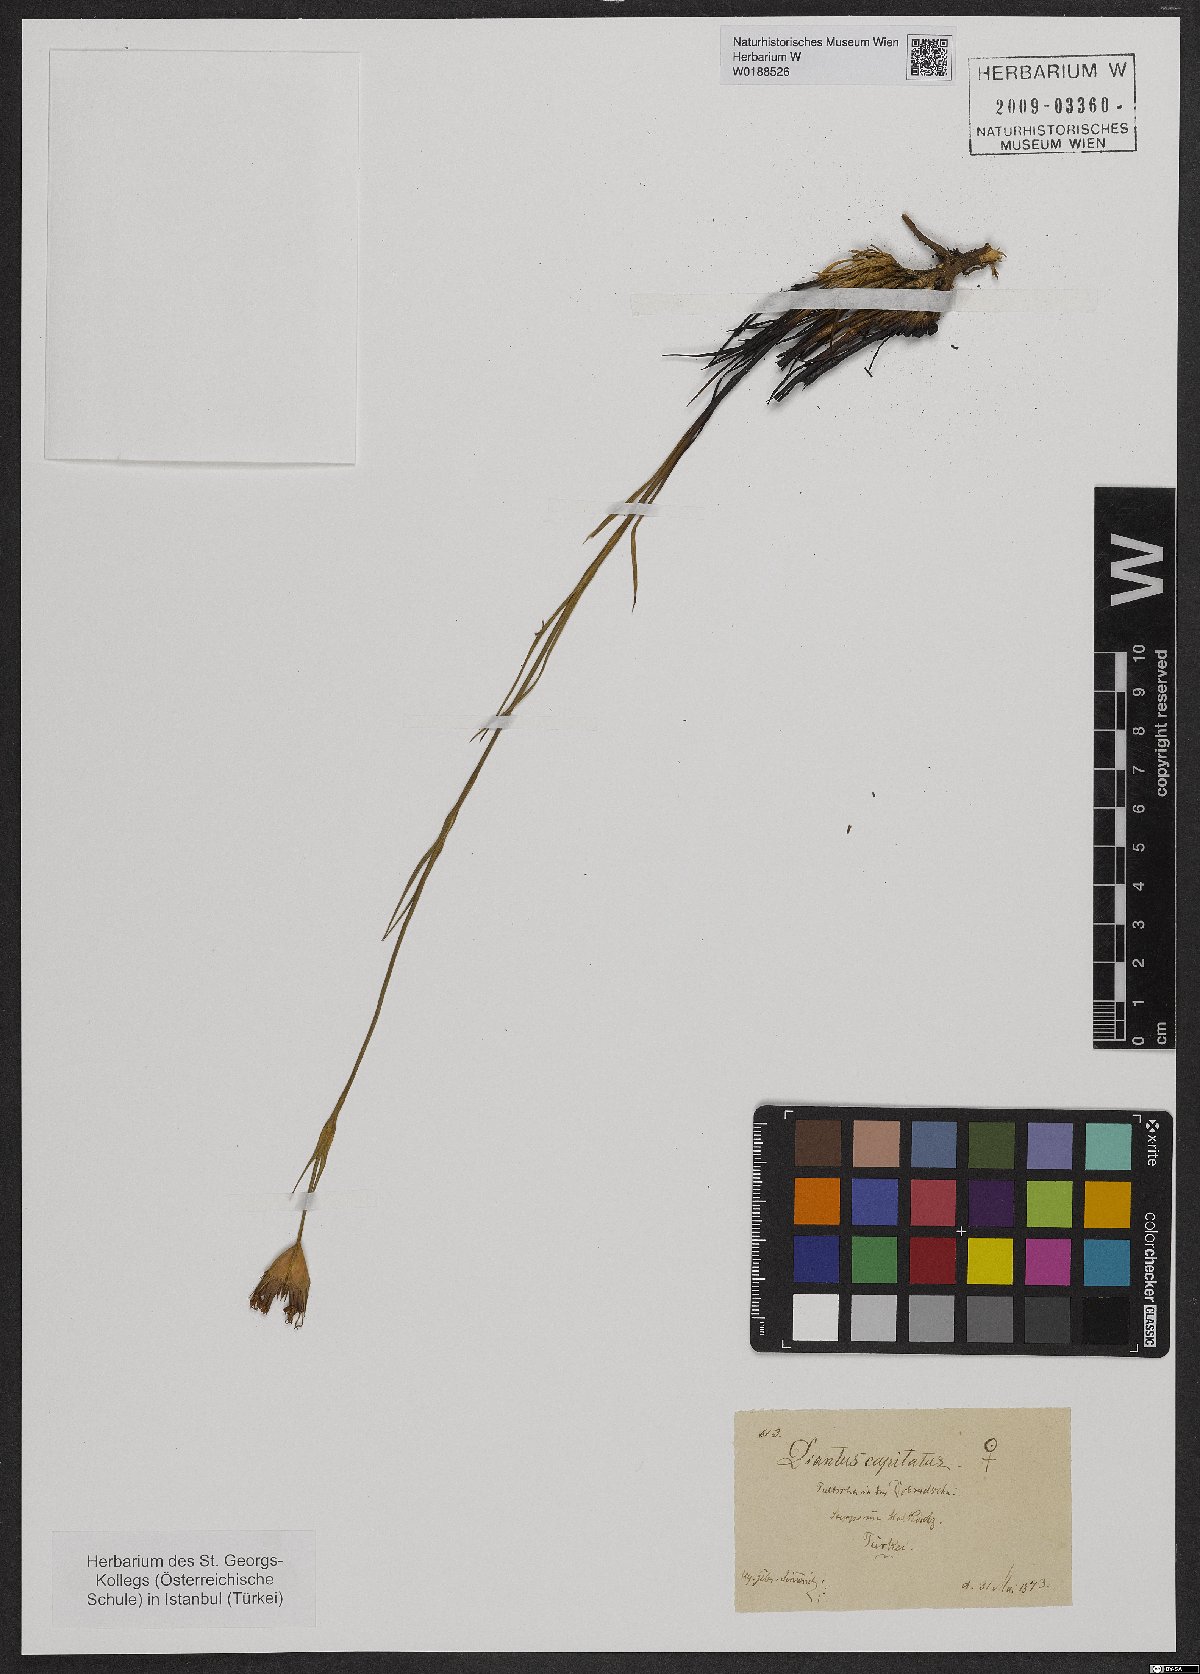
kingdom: Plantae
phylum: Tracheophyta
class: Magnoliopsida
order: Caryophyllales
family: Caryophyllaceae
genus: Dianthus
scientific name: Dianthus capitatus
